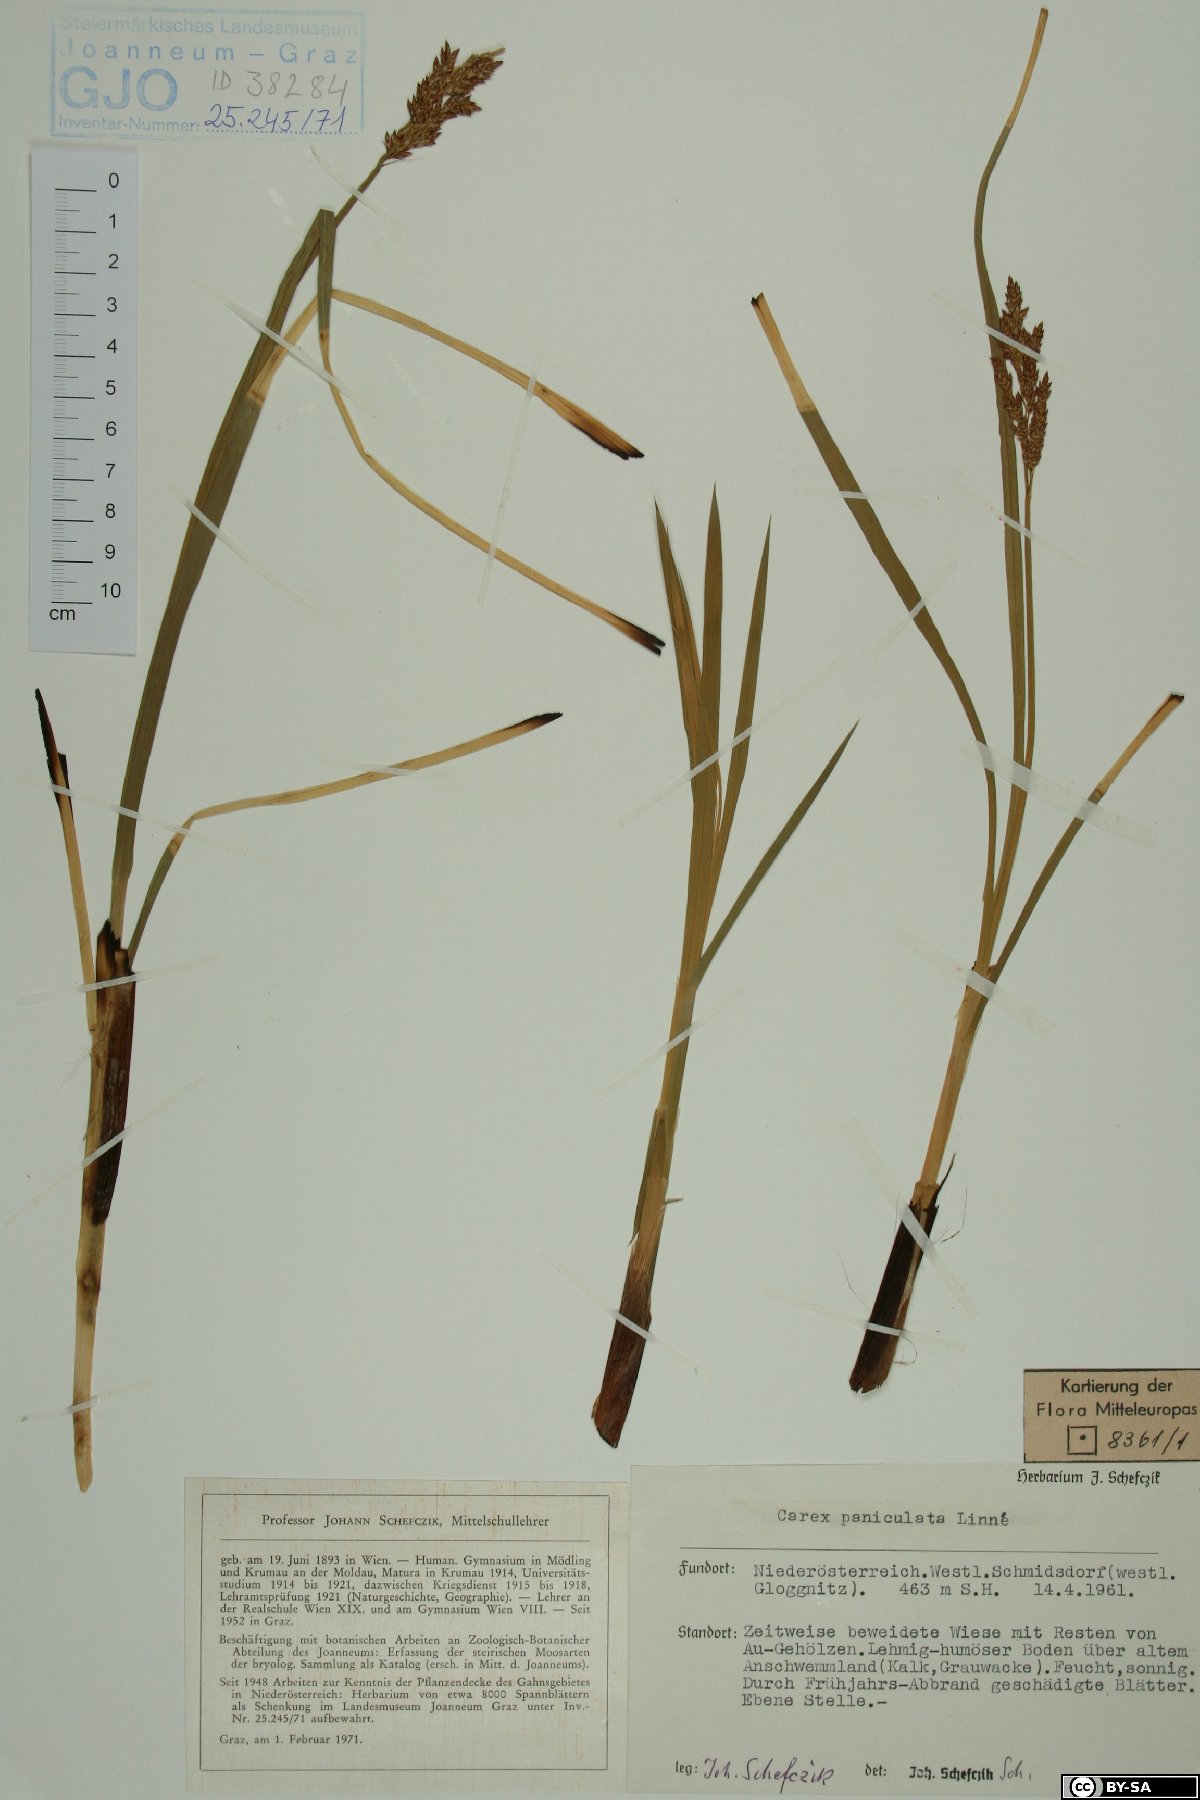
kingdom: Plantae
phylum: Tracheophyta
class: Liliopsida
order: Poales
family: Cyperaceae
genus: Carex
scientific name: Carex paniculata
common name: Greater tussock-sedge
